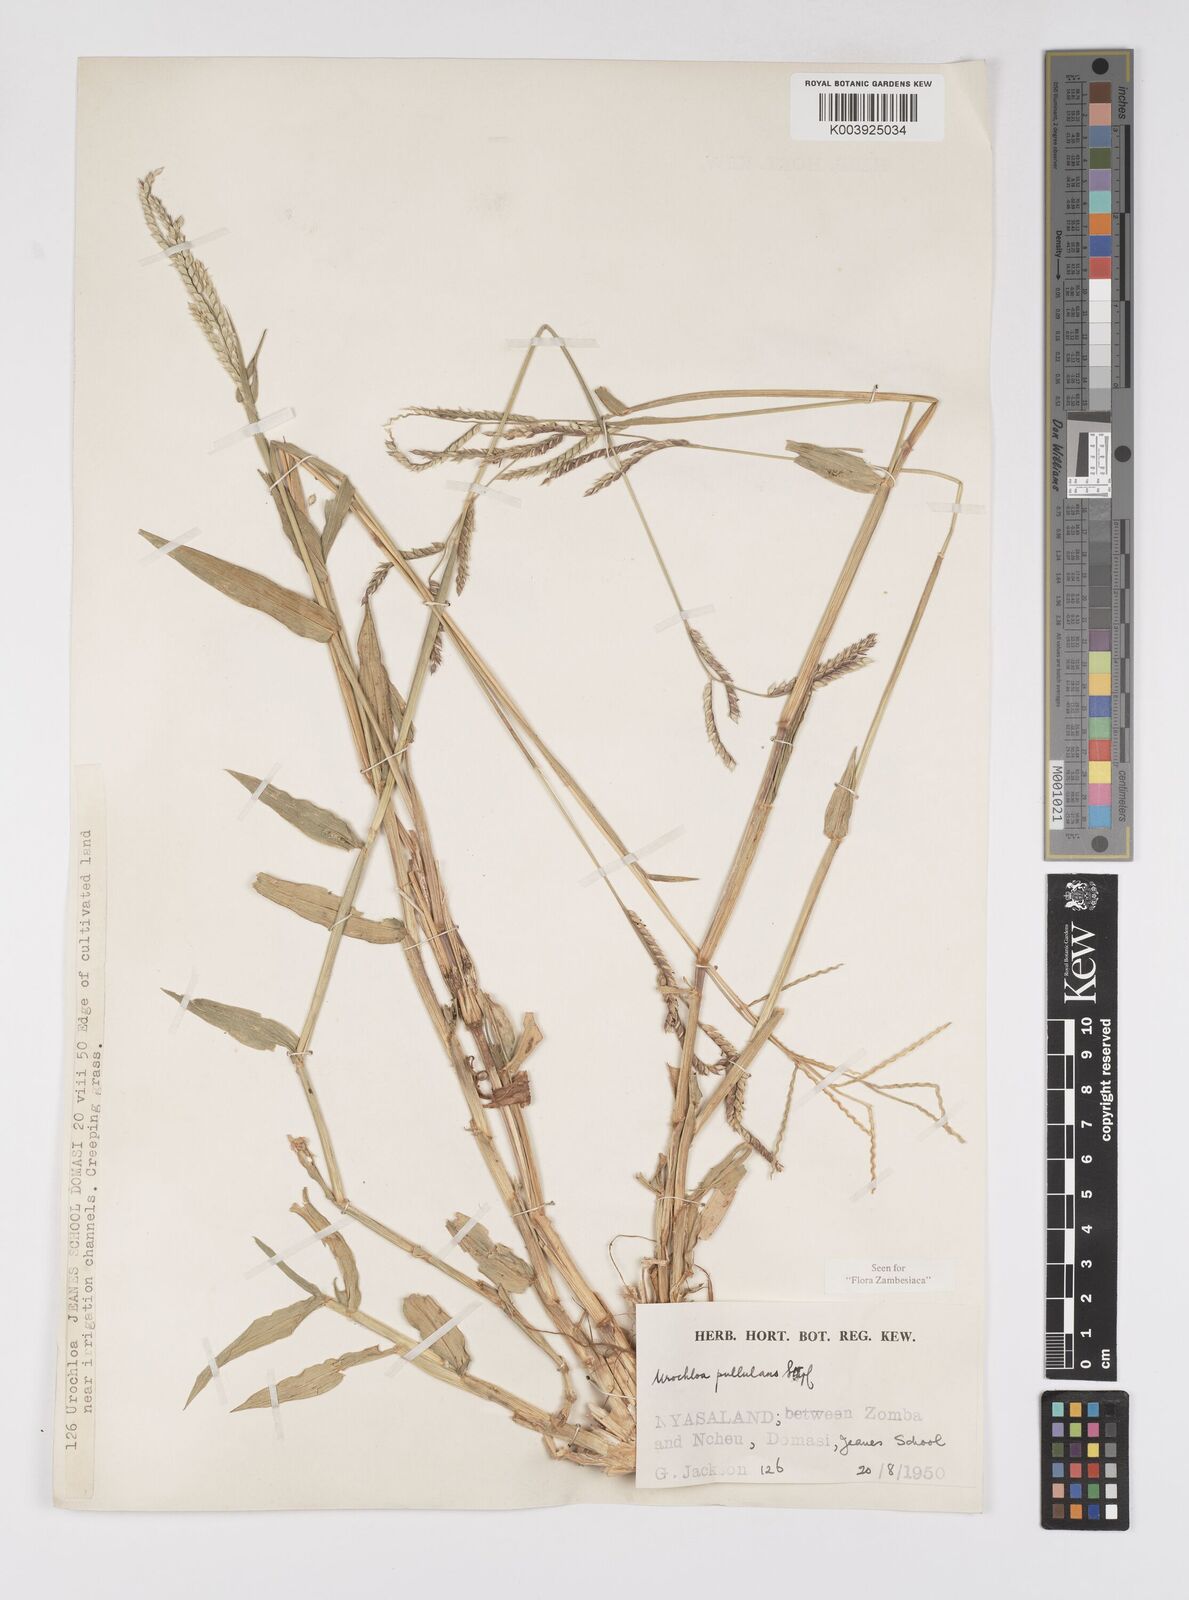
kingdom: Plantae
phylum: Tracheophyta
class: Liliopsida
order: Poales
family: Poaceae
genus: Urochloa
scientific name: Urochloa trichopus
